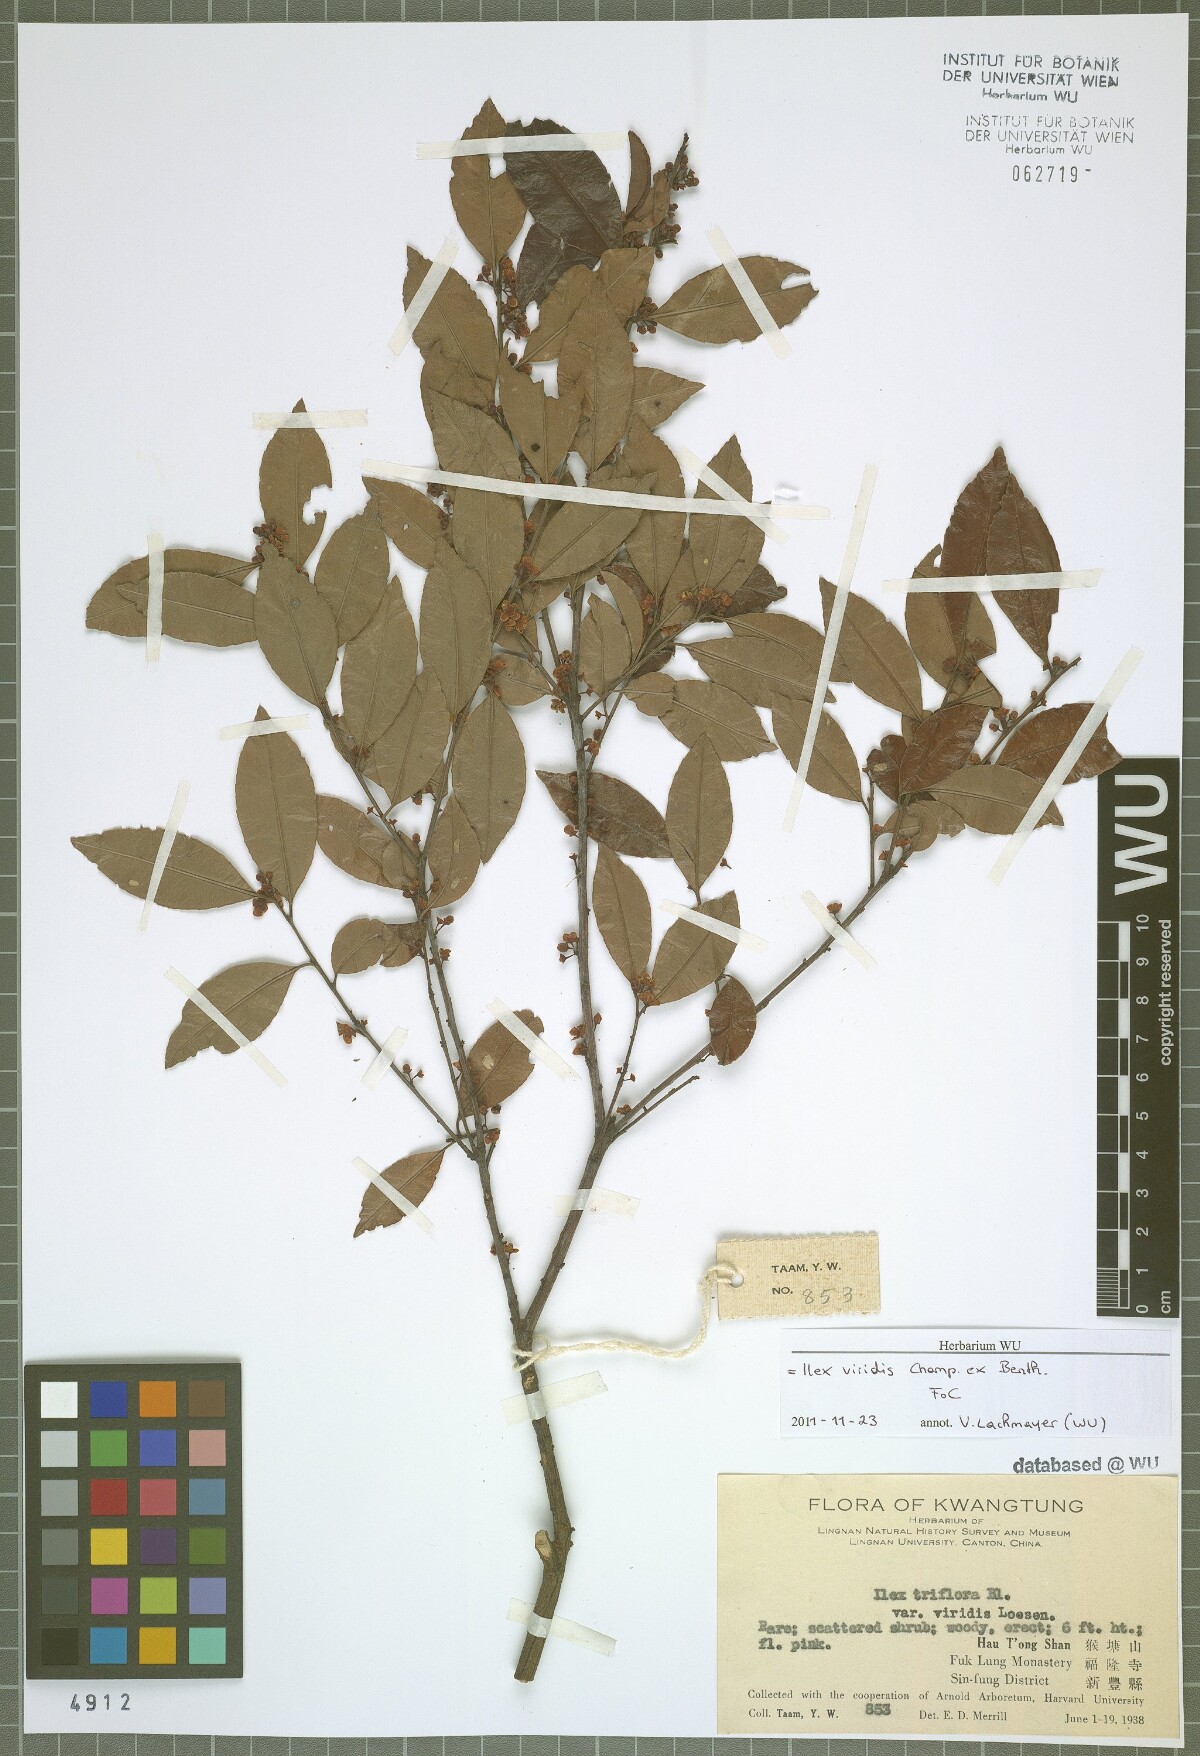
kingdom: Plantae
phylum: Tracheophyta
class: Magnoliopsida
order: Aquifoliales
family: Aquifoliaceae
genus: Ilex
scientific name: Ilex viridis
